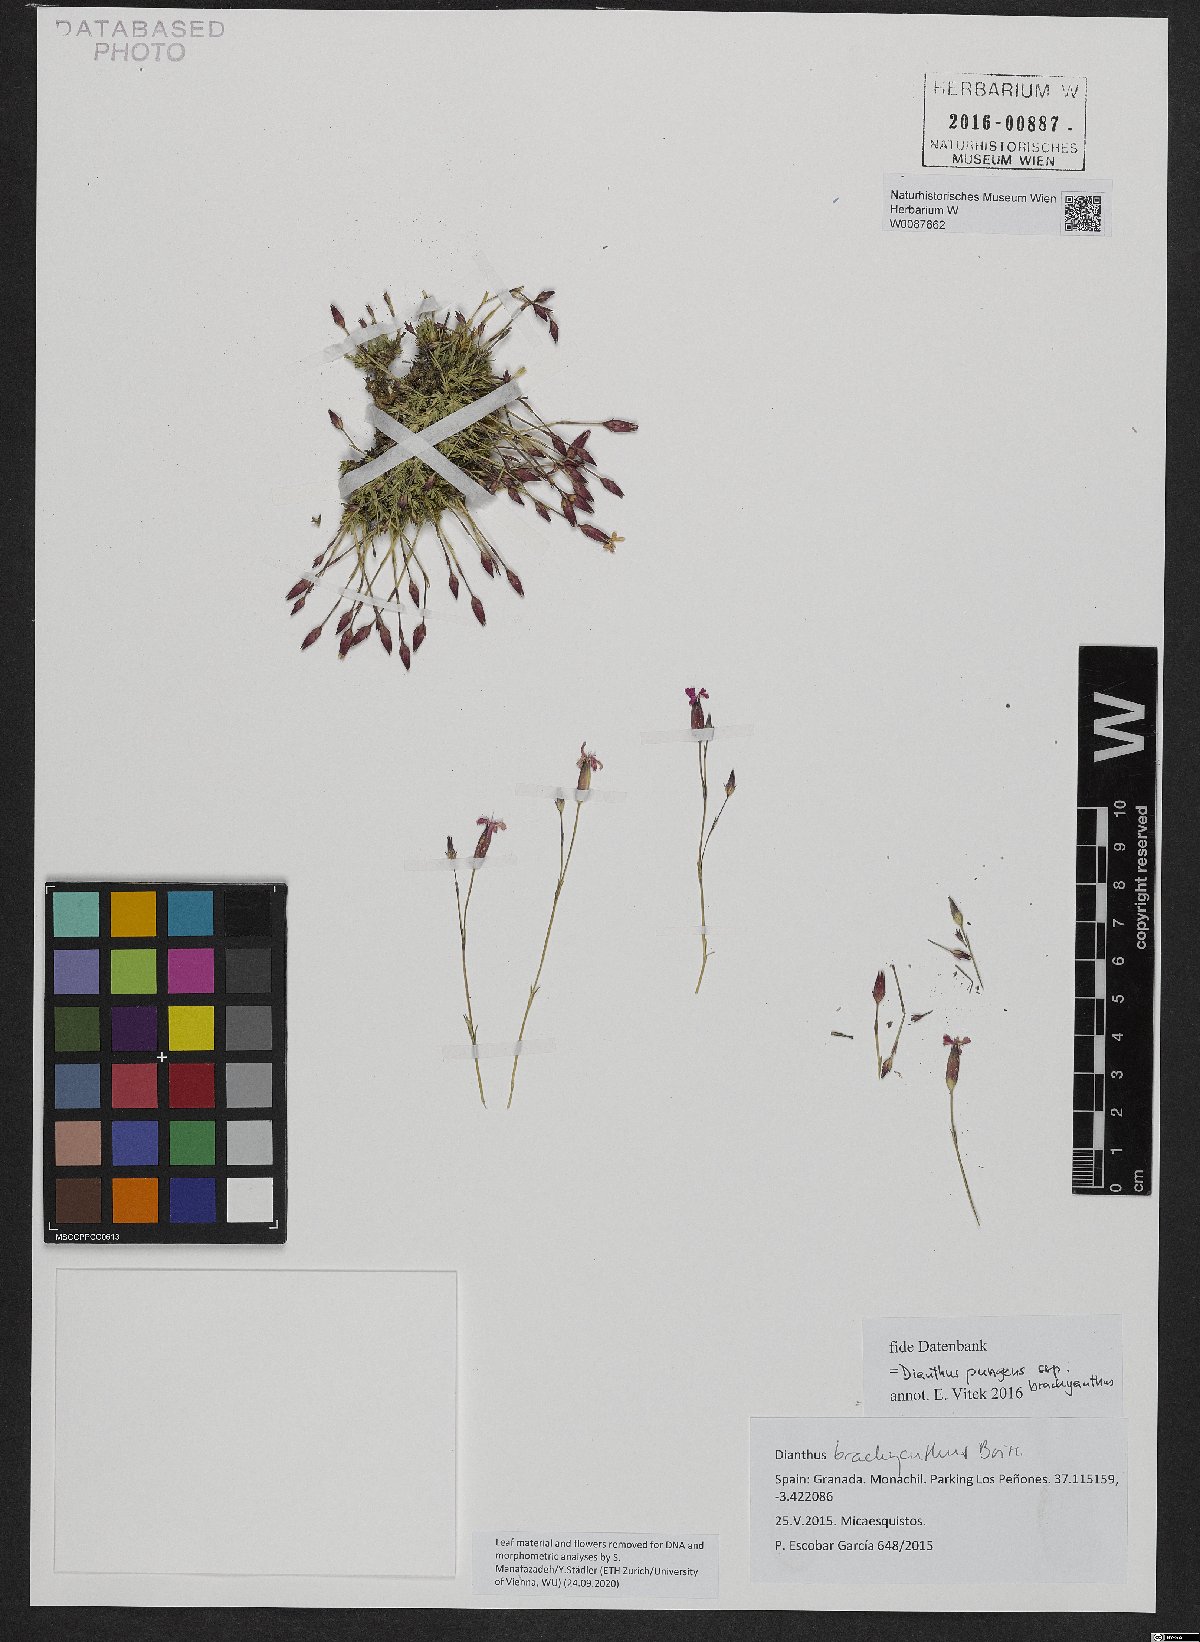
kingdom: Plantae
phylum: Tracheophyta
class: Magnoliopsida
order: Caryophyllales
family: Caryophyllaceae
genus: Dianthus
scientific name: Dianthus pungens
